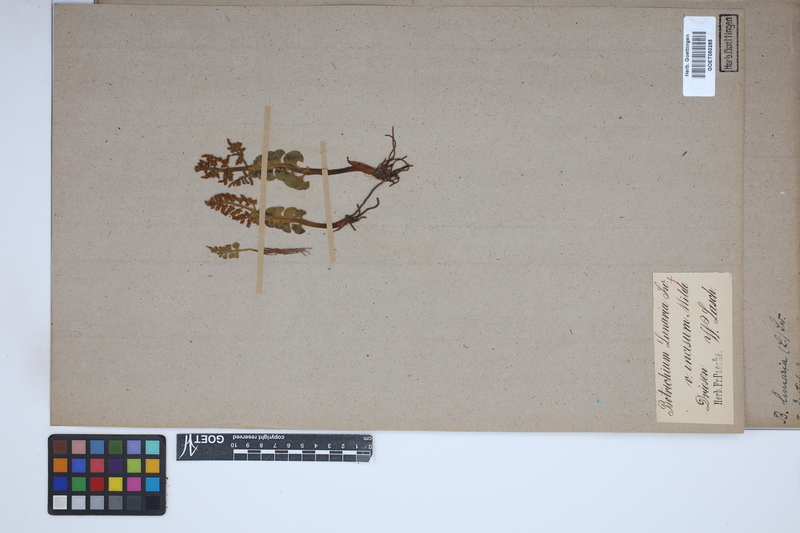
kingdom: Plantae
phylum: Tracheophyta
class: Polypodiopsida
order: Ophioglossales
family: Ophioglossaceae
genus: Botrychium
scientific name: Botrychium lunaria
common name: Moonwort
